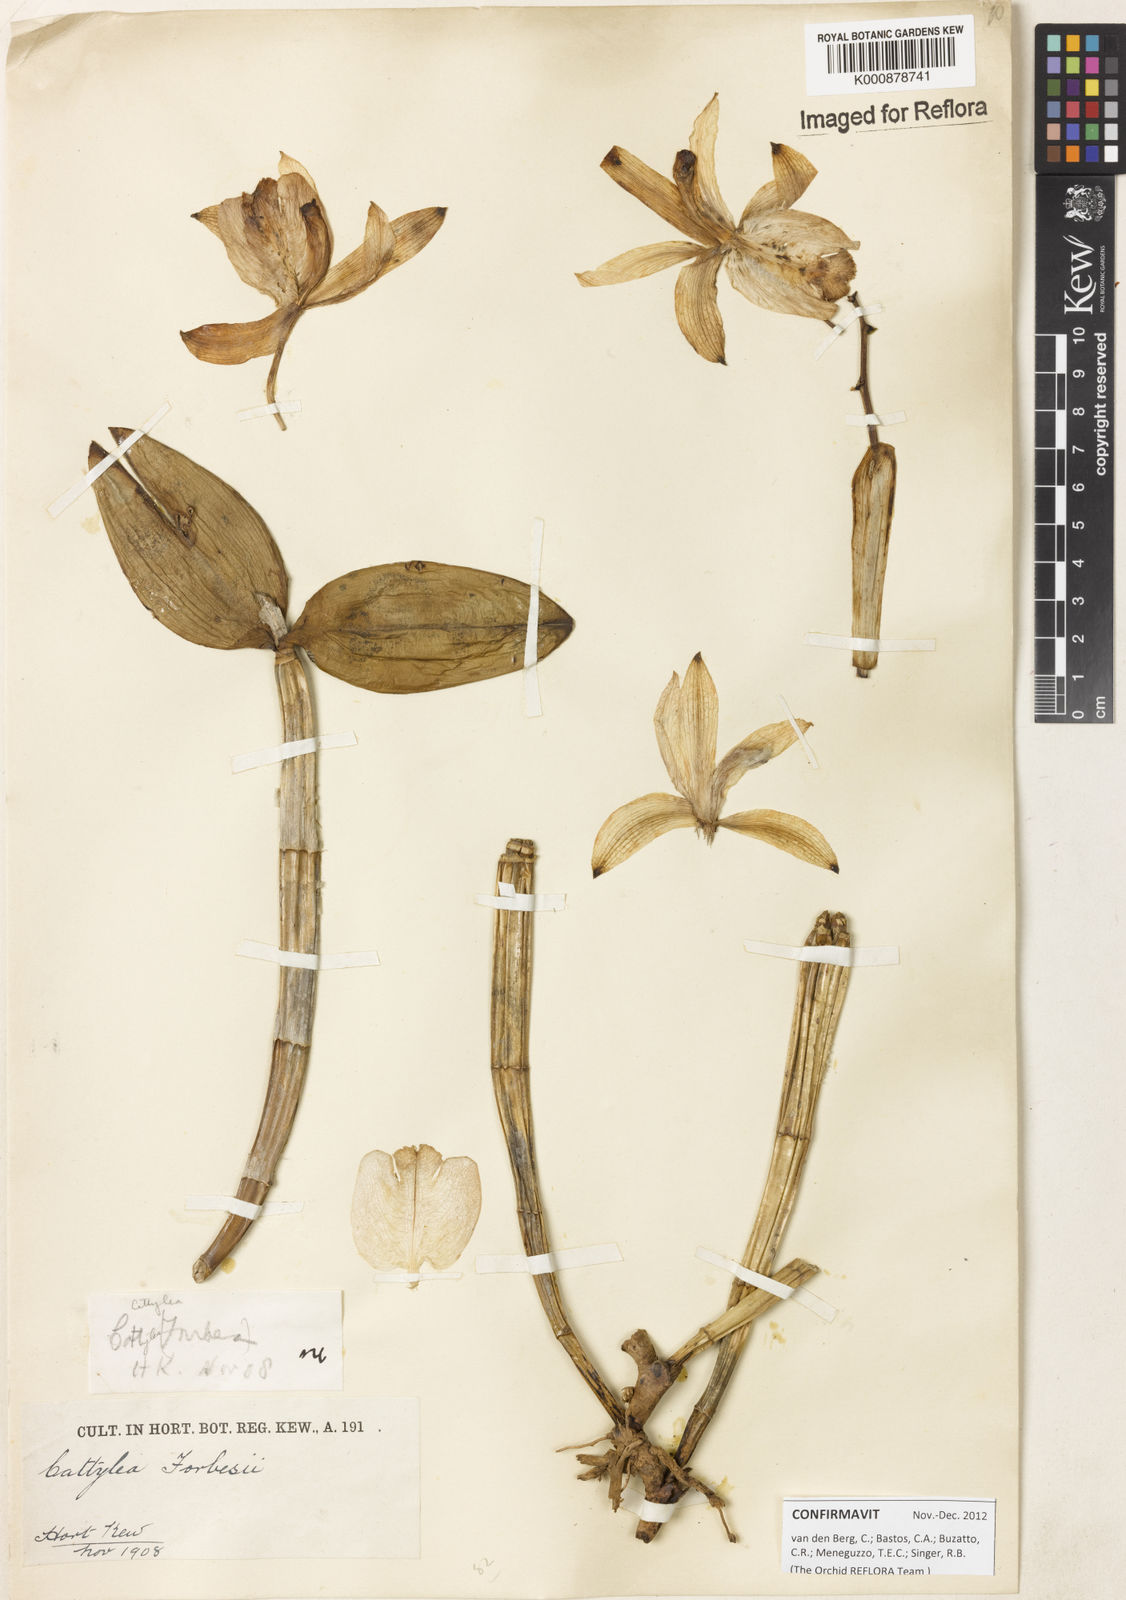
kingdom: Plantae
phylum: Tracheophyta
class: Liliopsida
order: Asparagales
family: Orchidaceae
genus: Cattleya
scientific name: Cattleya forbesii
